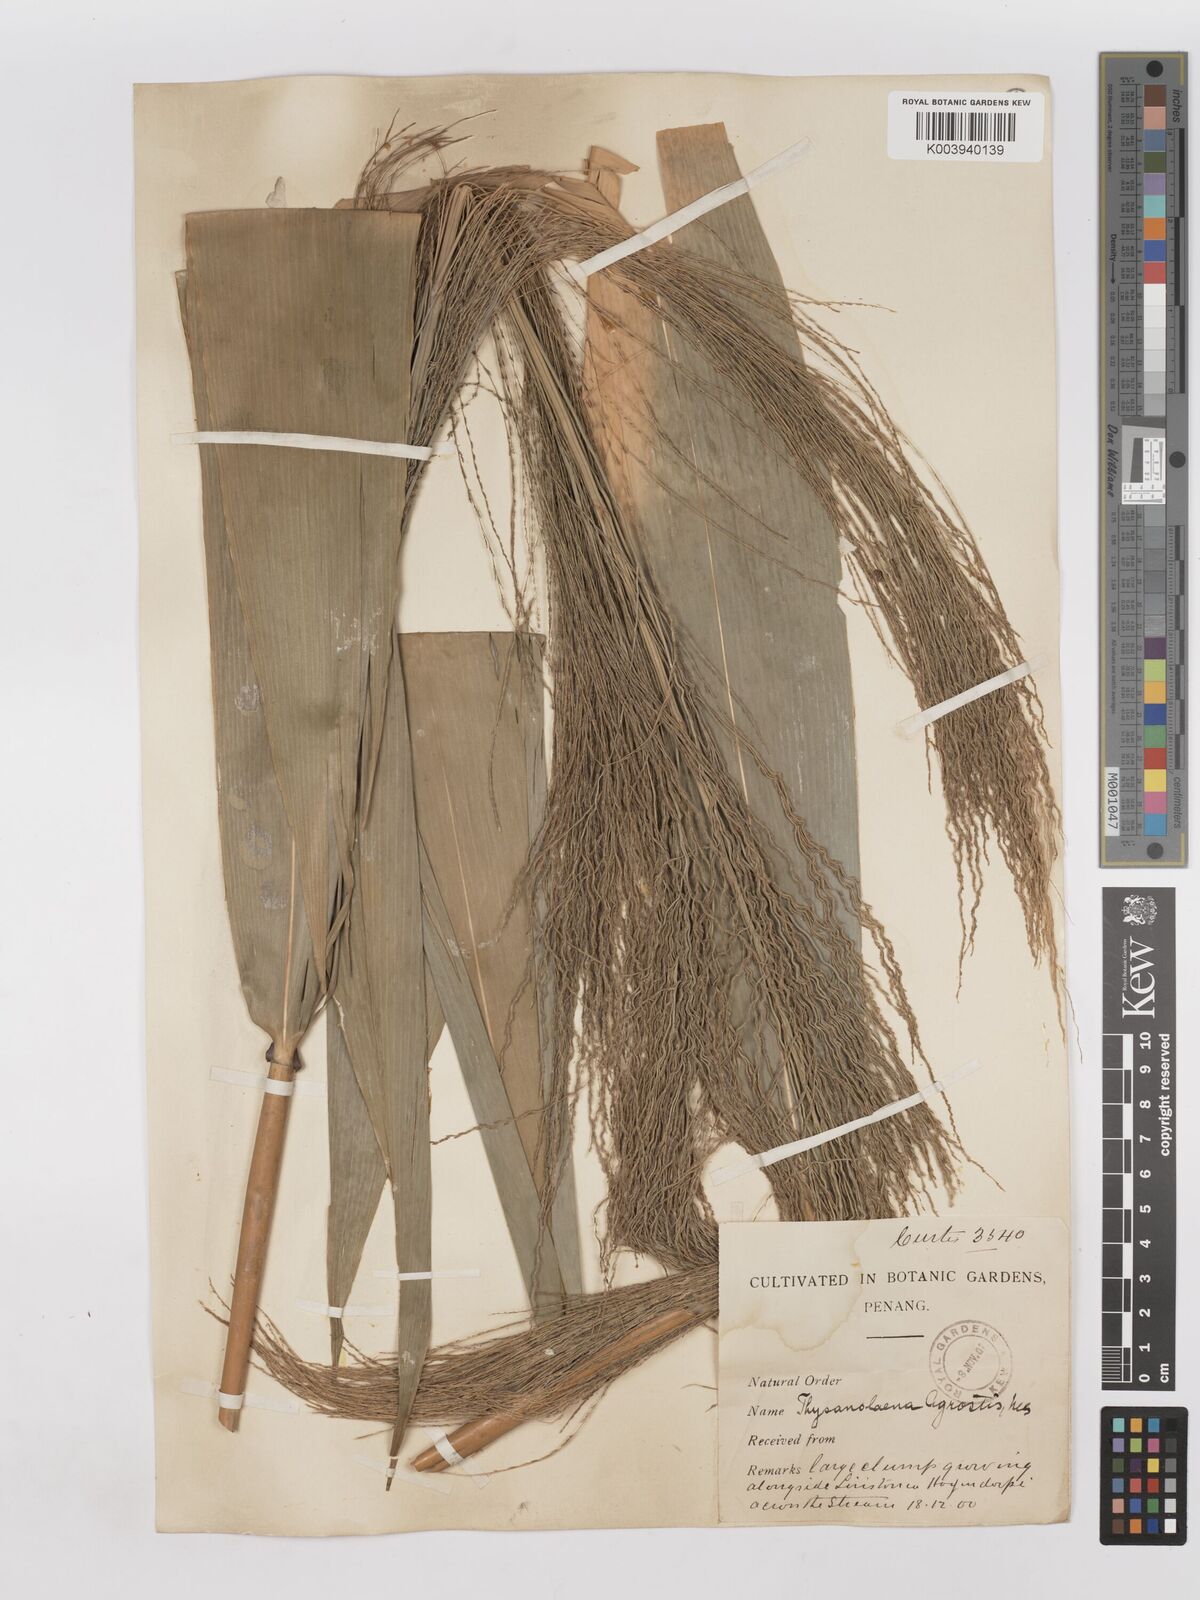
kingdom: Plantae
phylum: Tracheophyta
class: Liliopsida
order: Poales
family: Poaceae
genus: Thysanolaena
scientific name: Thysanolaena latifolia
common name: Tiger grass
